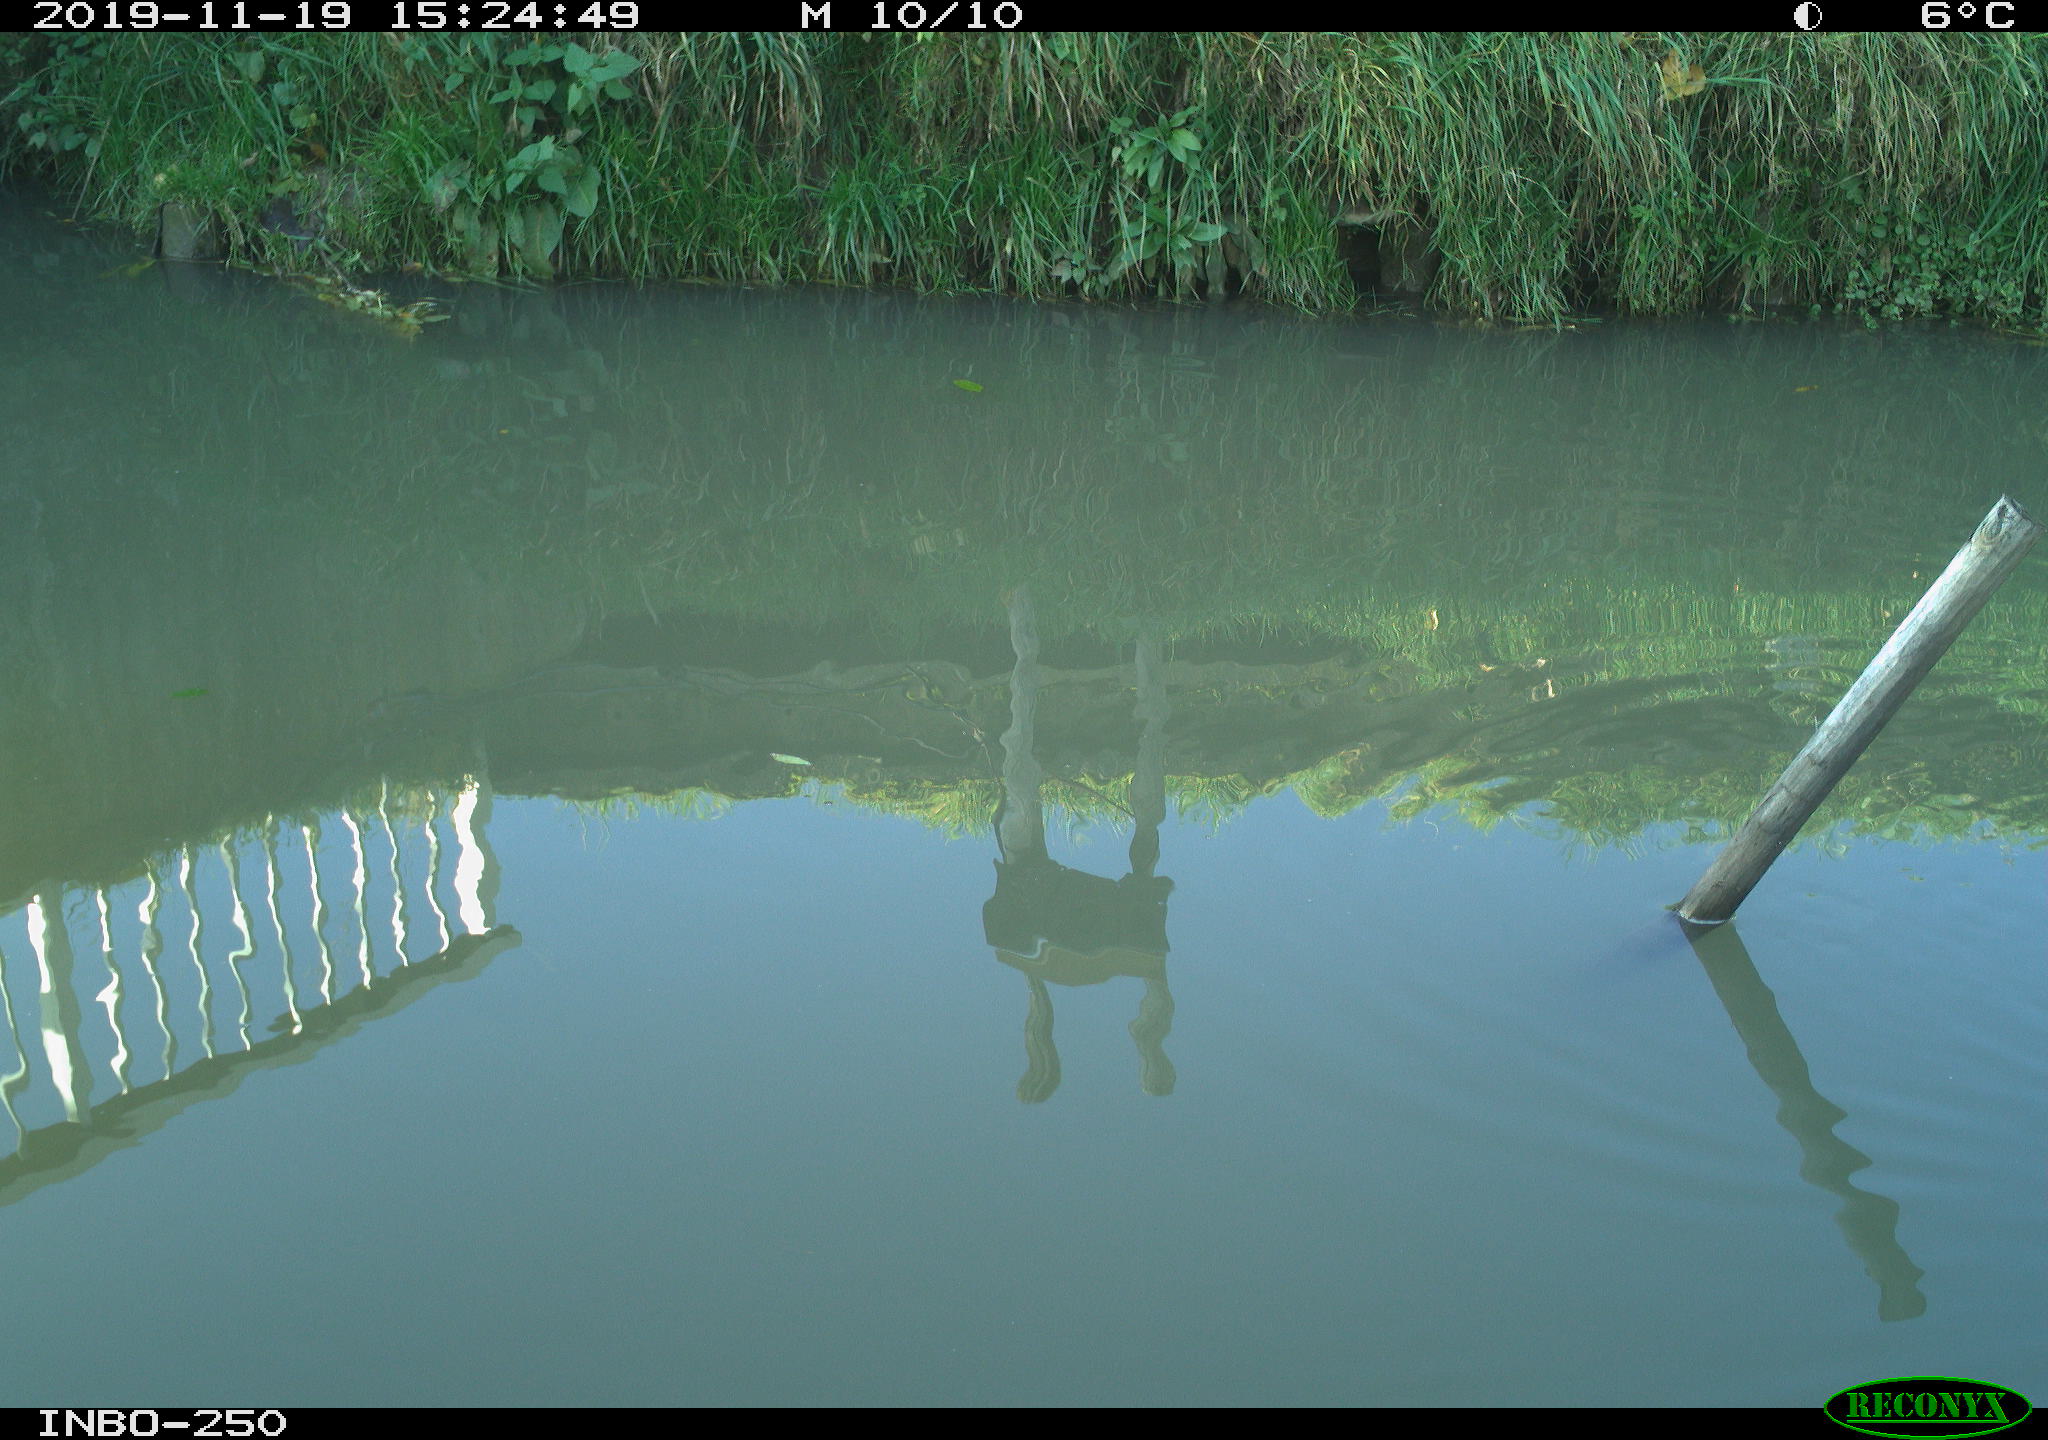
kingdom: Animalia
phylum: Chordata
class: Aves
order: Gruiformes
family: Rallidae
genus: Gallinula
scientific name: Gallinula chloropus
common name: Common moorhen
